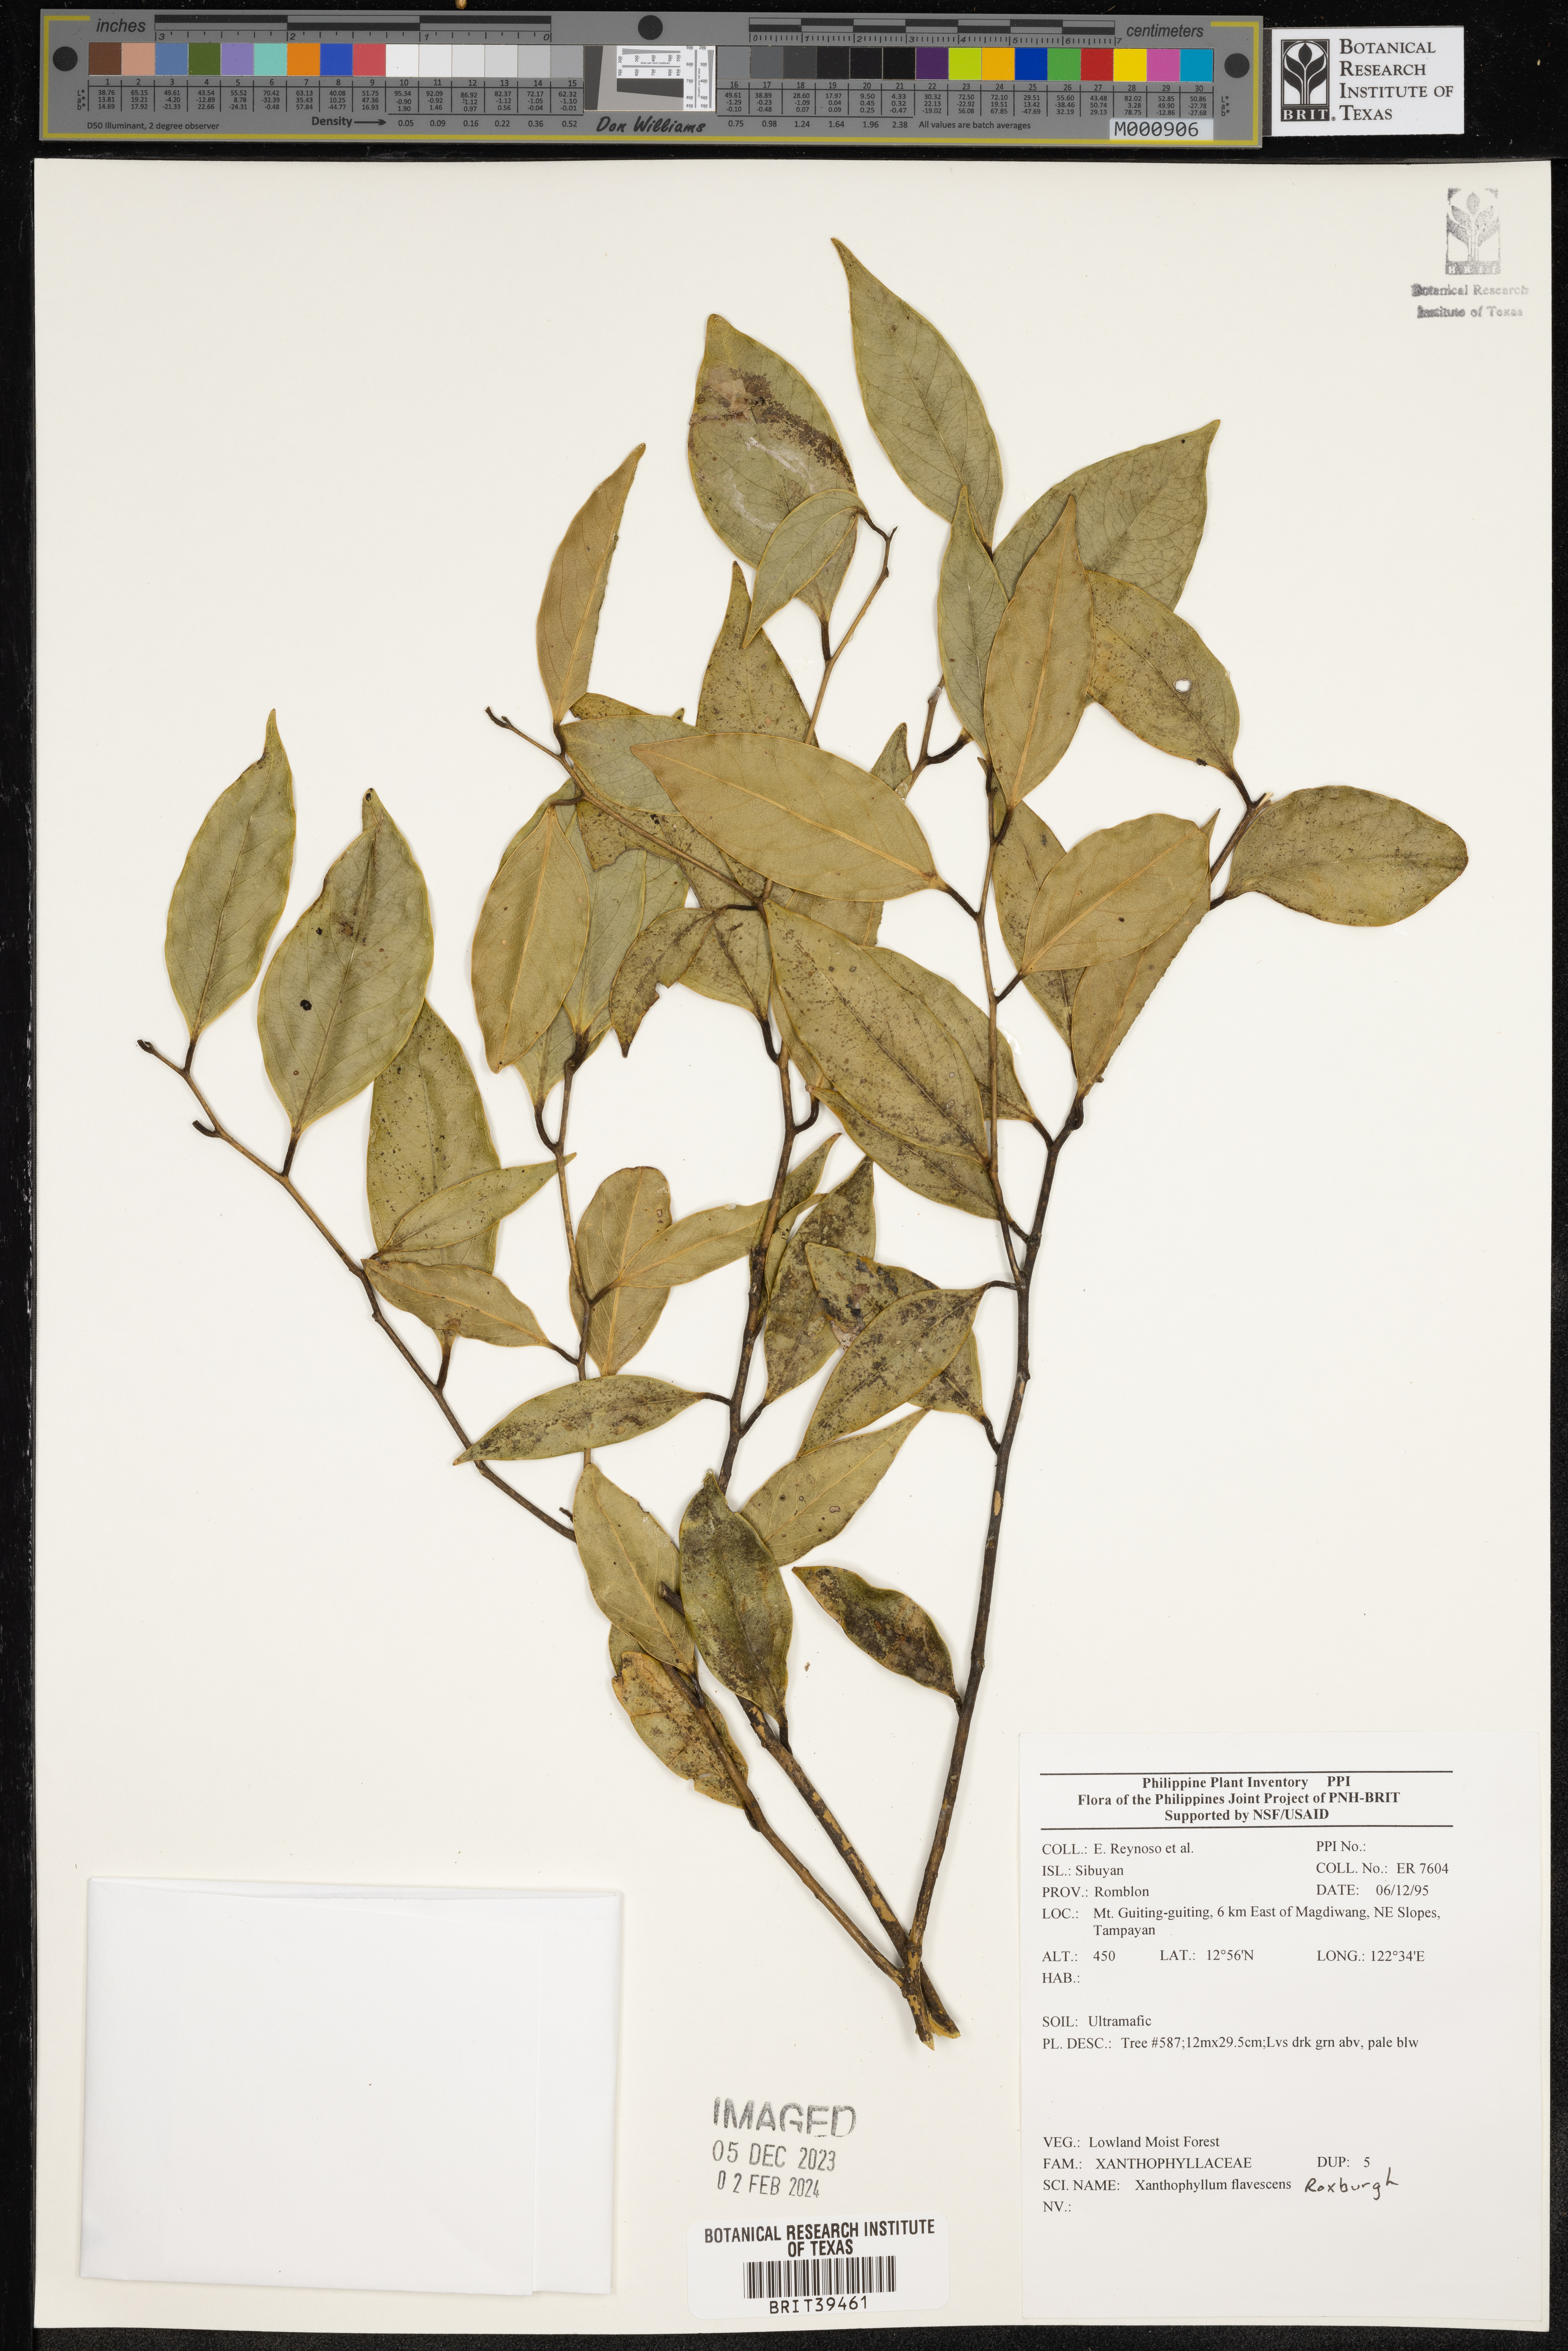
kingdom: Plantae
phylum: Tracheophyta
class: Magnoliopsida
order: Fabales
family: Polygalaceae
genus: Xanthophyllum
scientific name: Xanthophyllum flavescens
